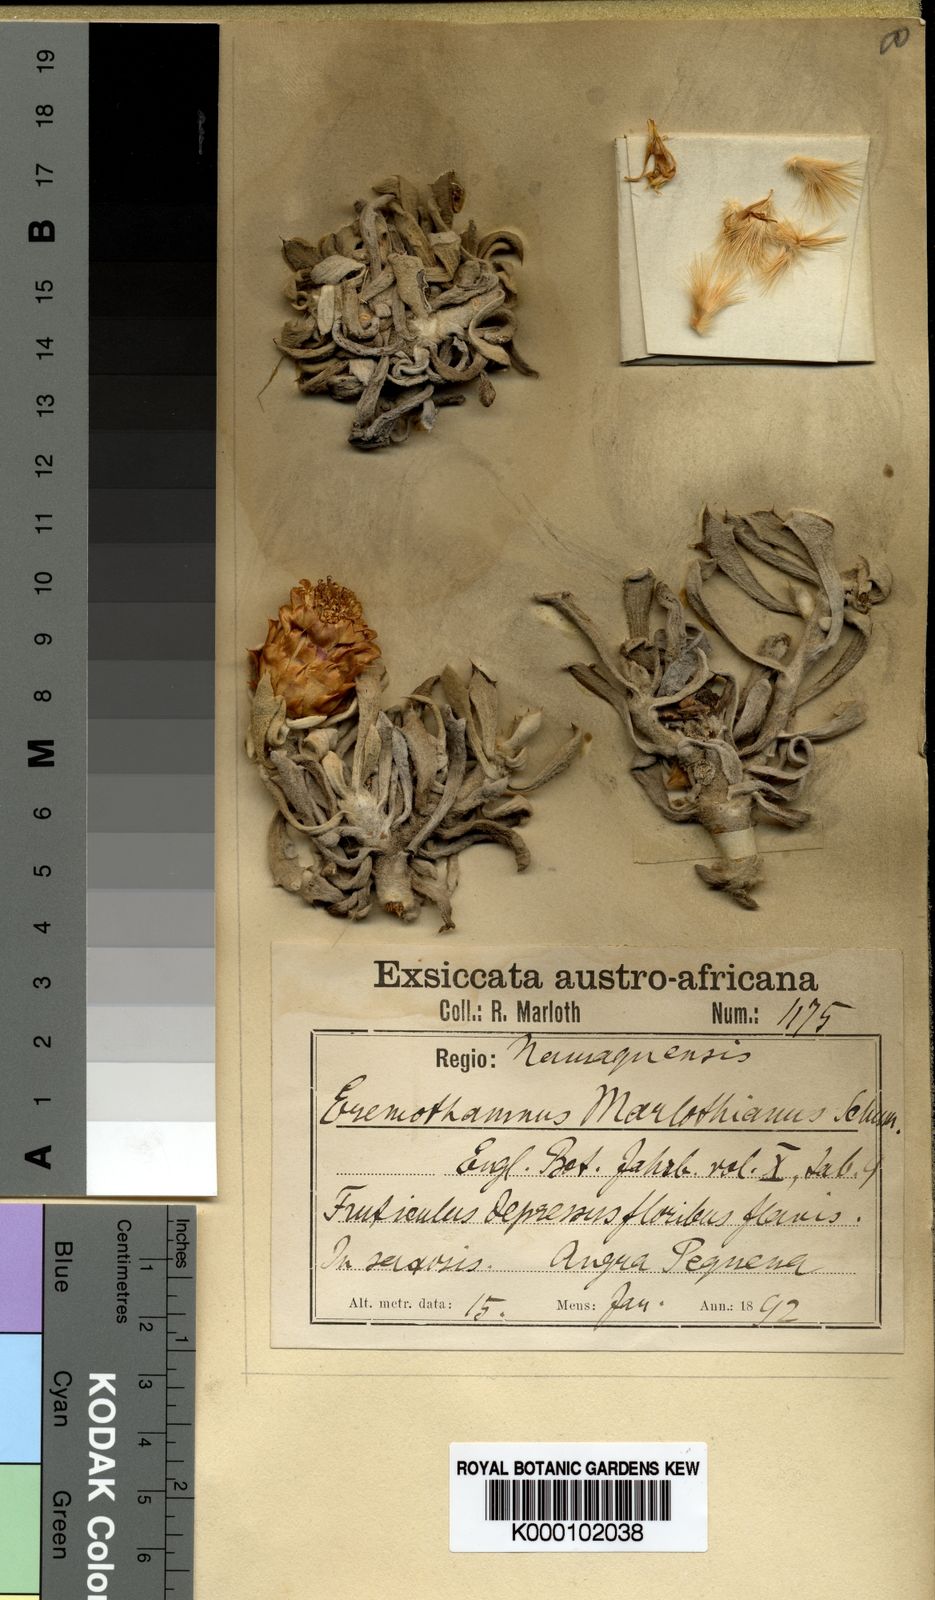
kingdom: Plantae
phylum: Tracheophyta
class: Magnoliopsida
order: Asterales
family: Asteraceae
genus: Eremothamnus
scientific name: Eremothamnus marlothianus
